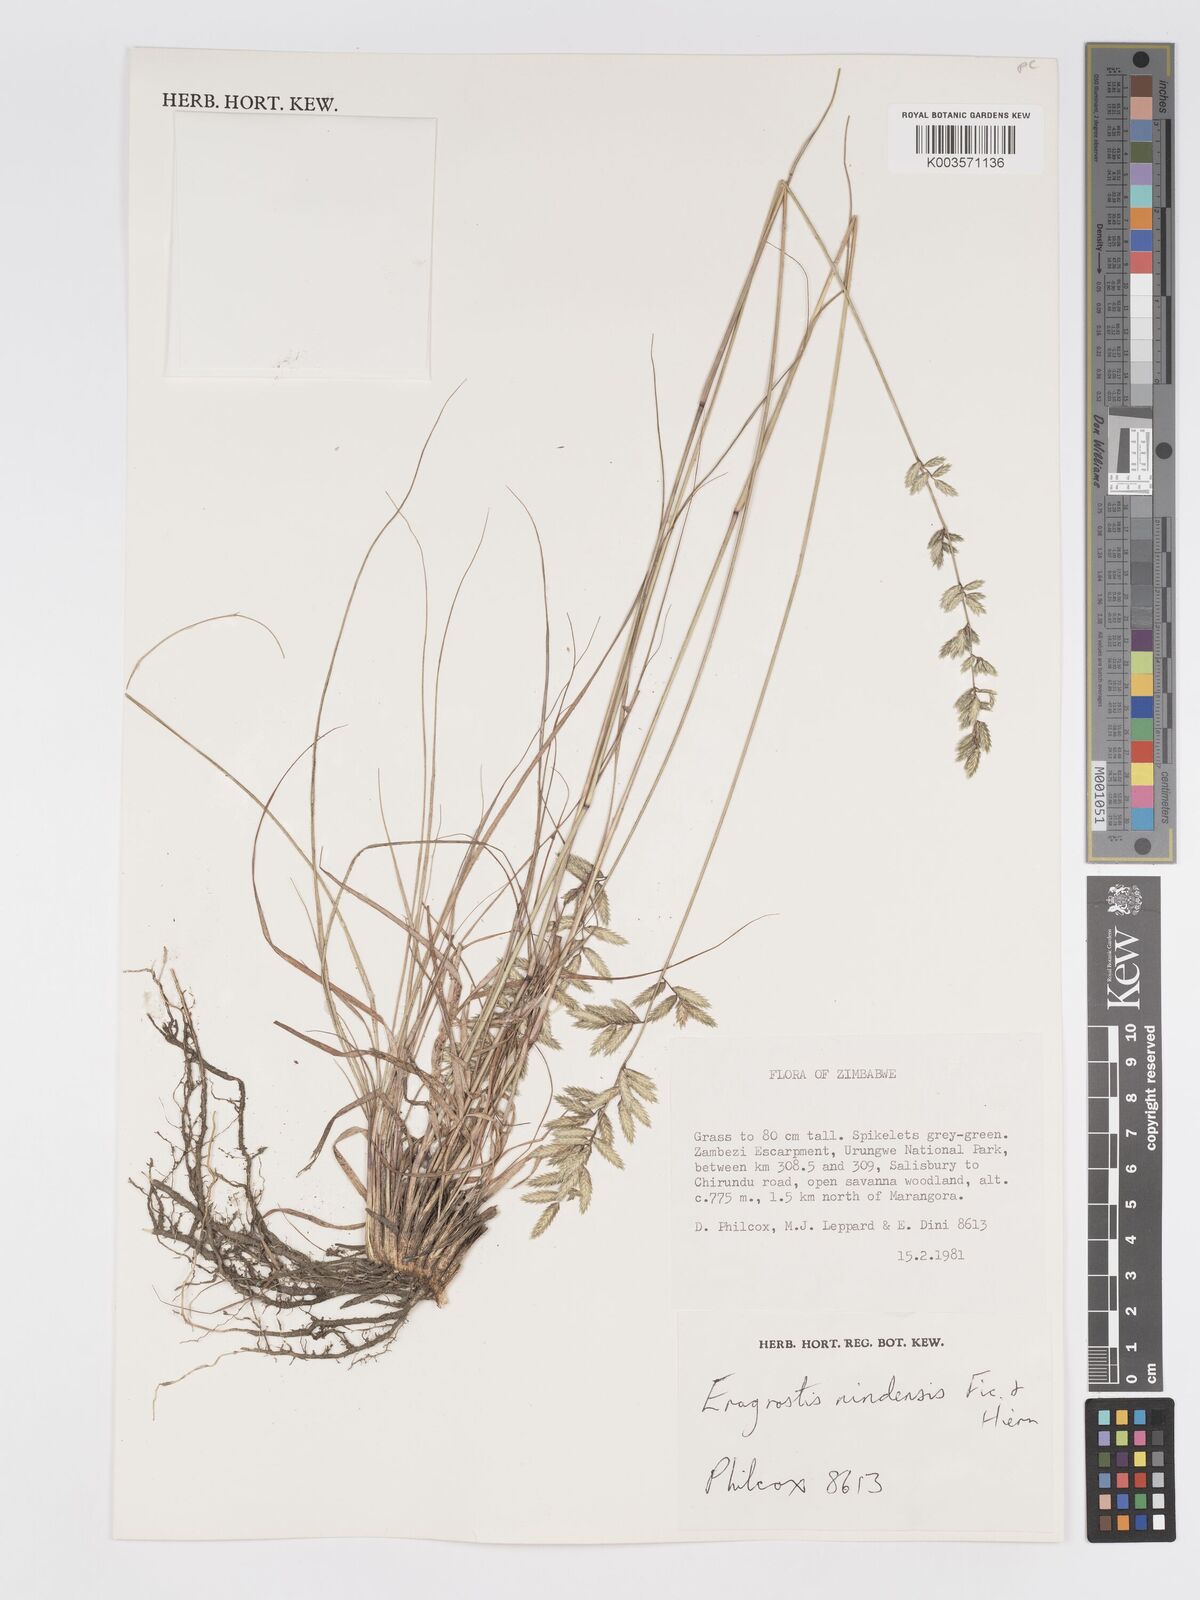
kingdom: Plantae
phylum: Tracheophyta
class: Liliopsida
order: Poales
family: Poaceae
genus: Eragrostis
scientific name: Eragrostis nindensis
